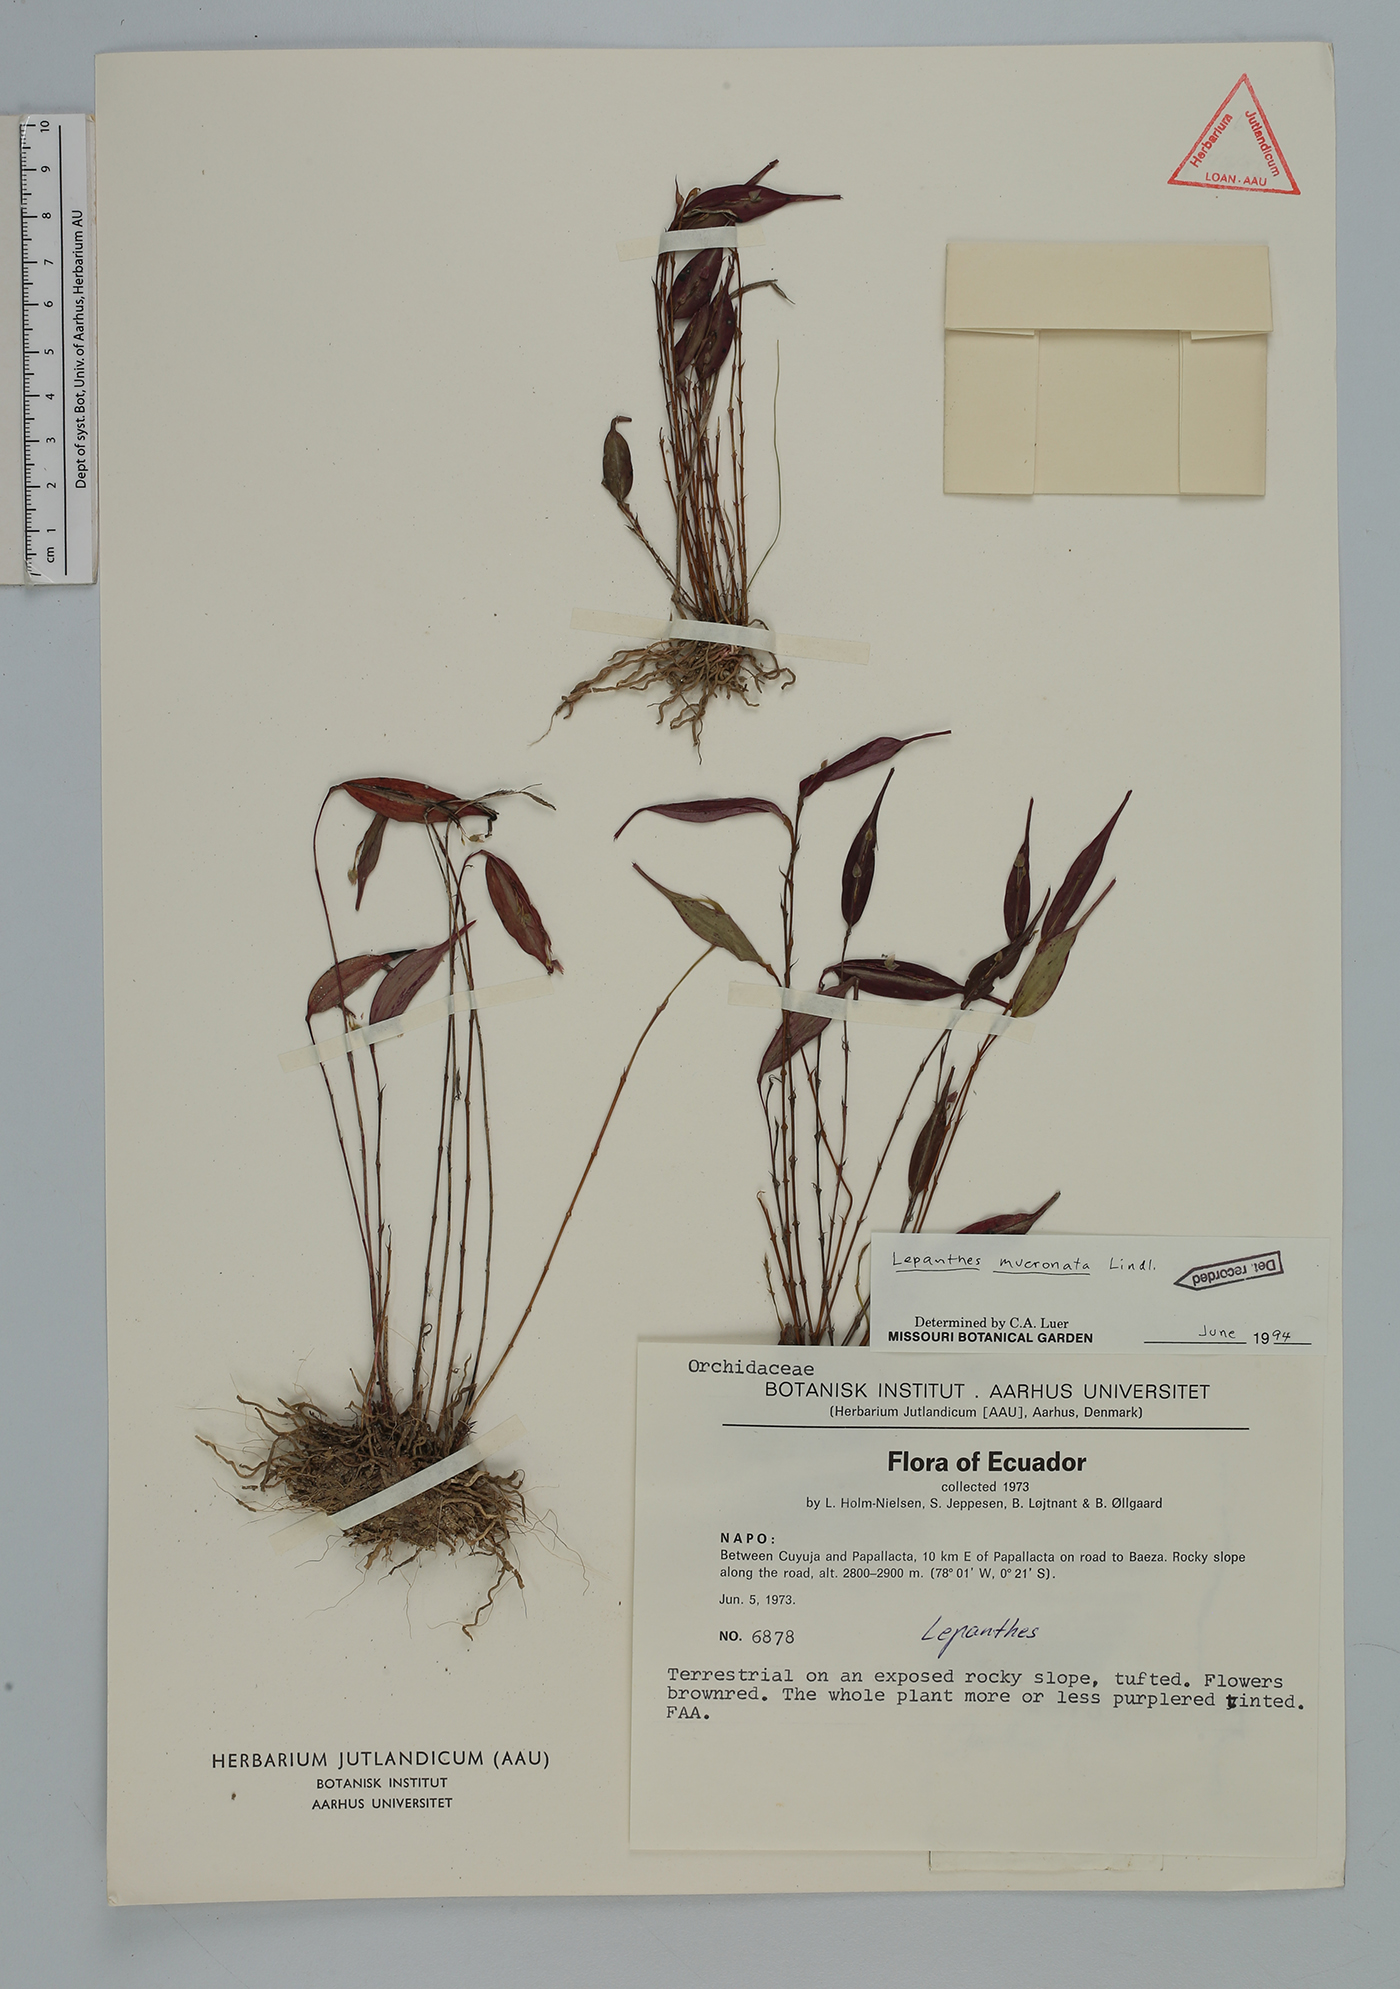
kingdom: Plantae
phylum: Tracheophyta
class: Liliopsida
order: Asparagales
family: Orchidaceae
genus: Lepanthes
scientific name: Lepanthes mucronata
